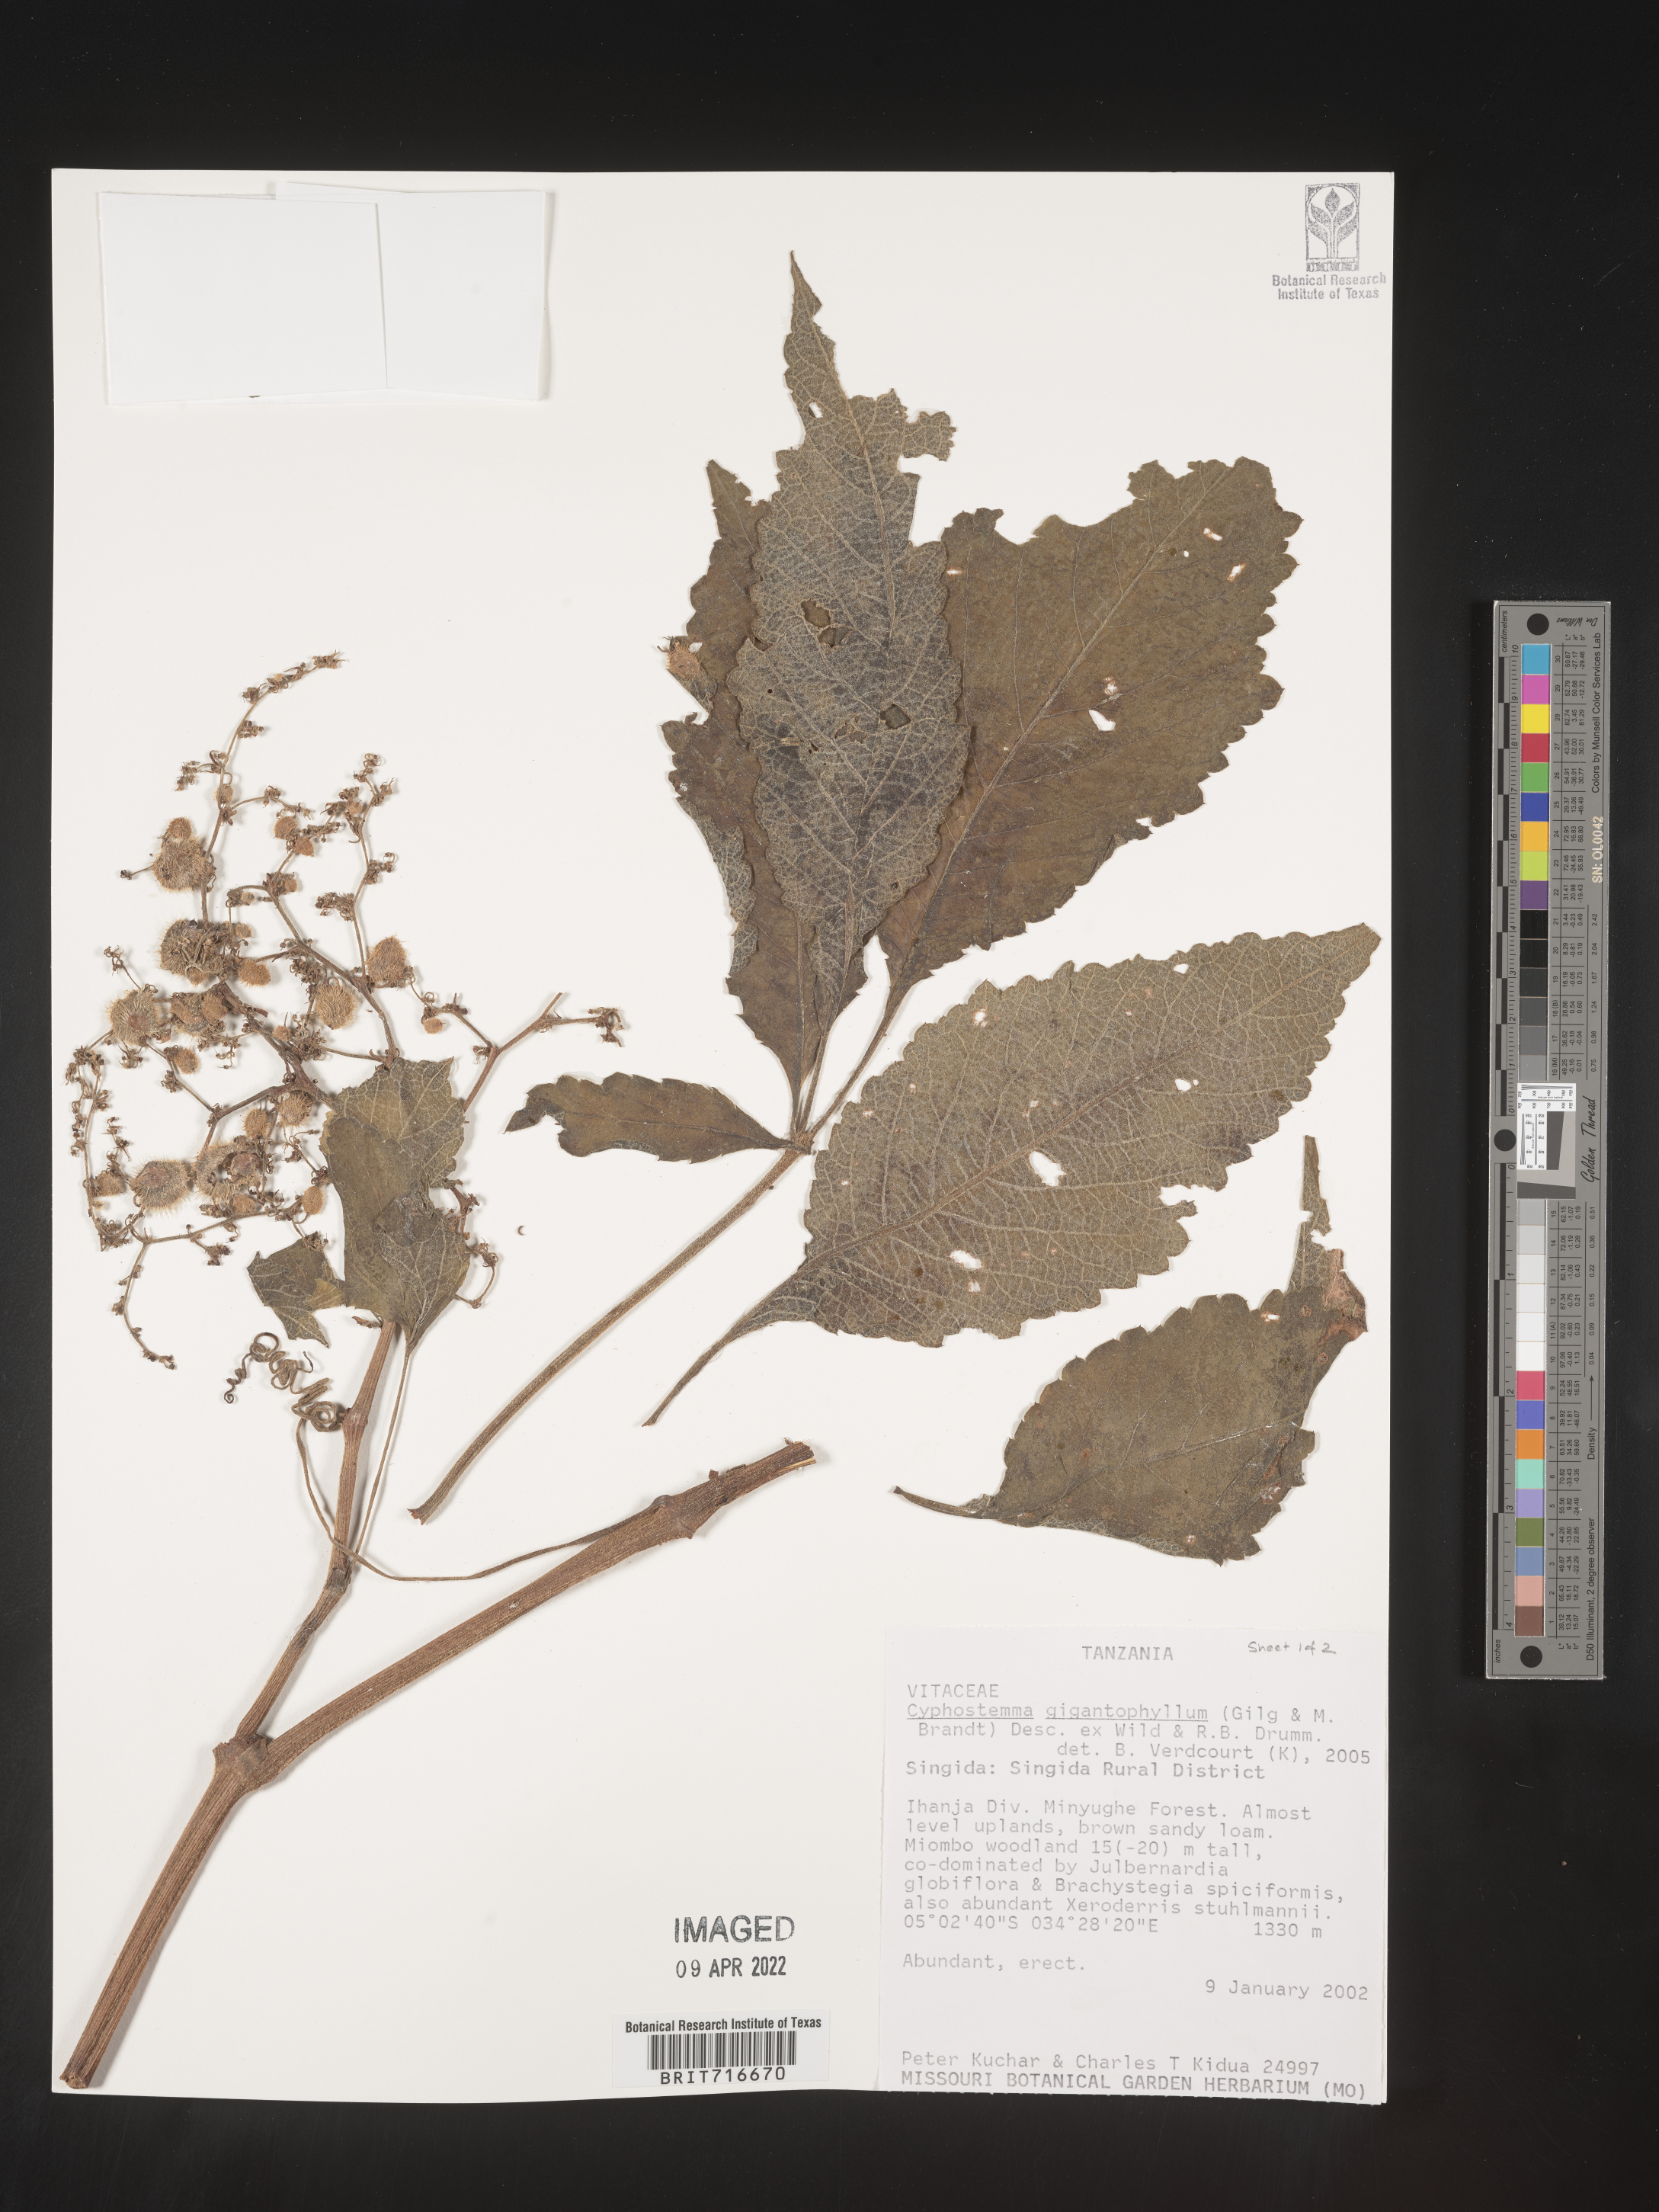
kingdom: Plantae
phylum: Tracheophyta
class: Magnoliopsida
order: Vitales
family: Vitaceae
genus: Cyphostemma
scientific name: Cyphostemma
